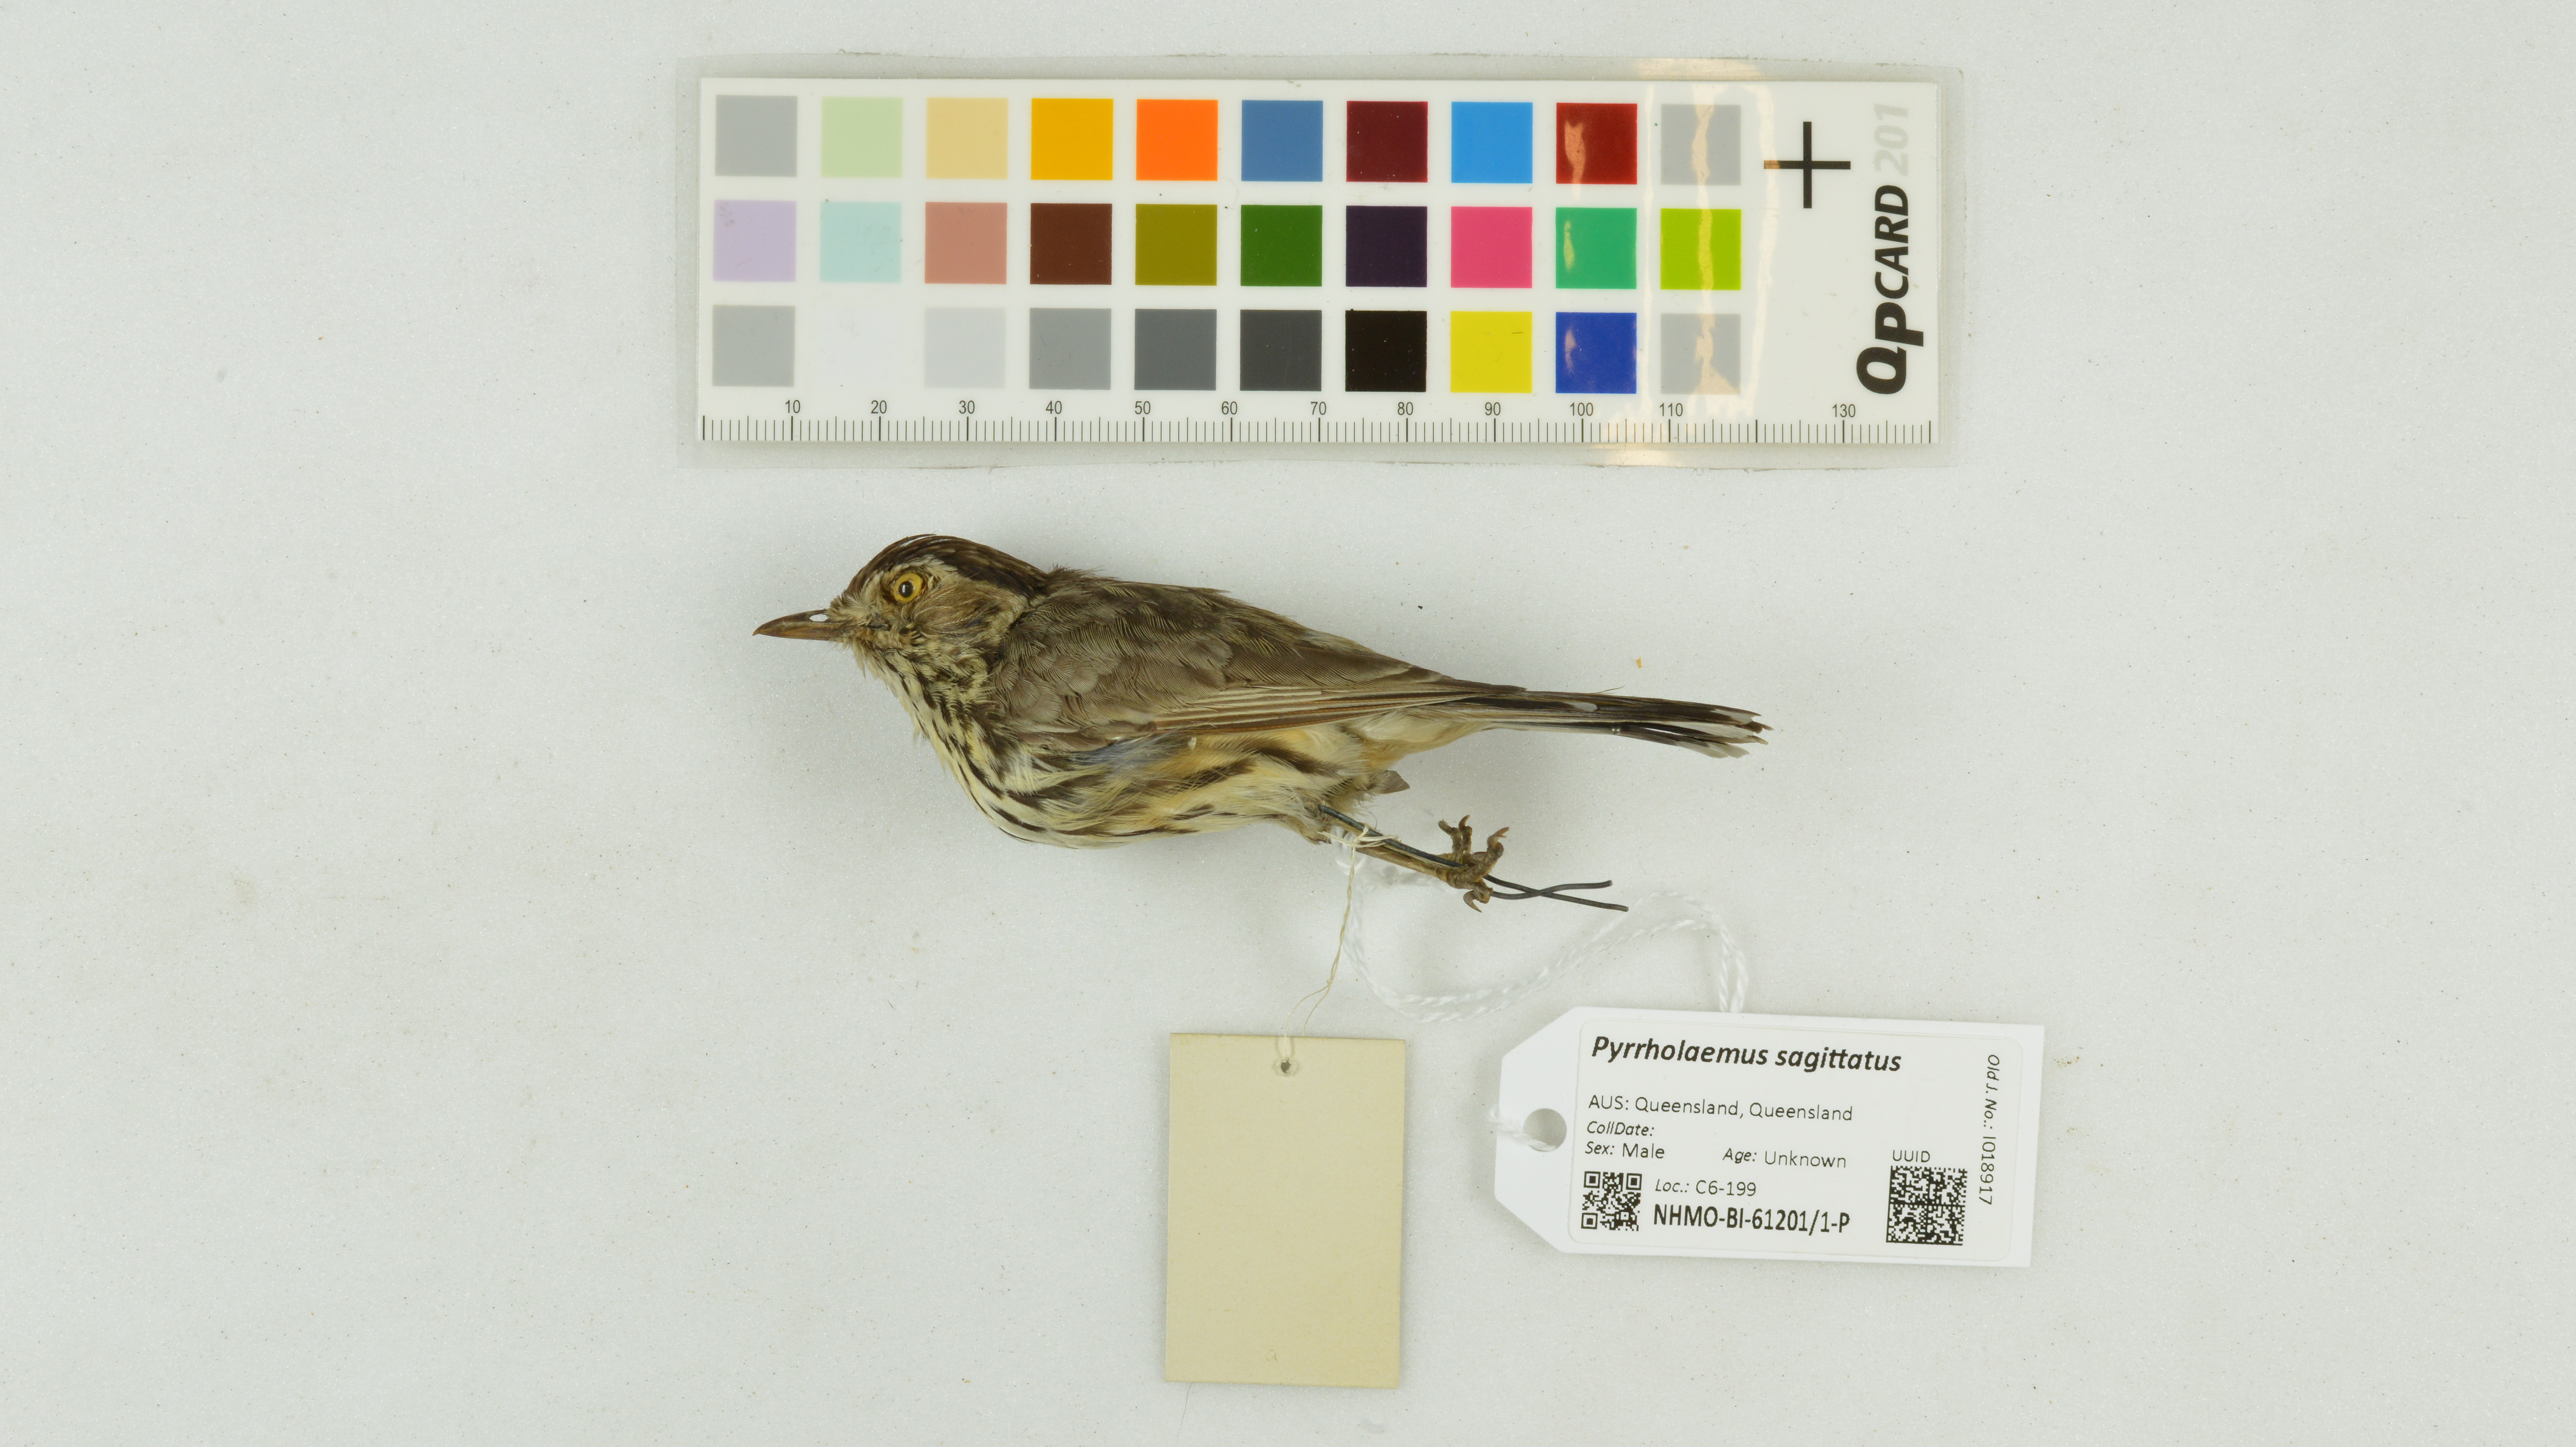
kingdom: Animalia
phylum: Chordata
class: Aves
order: Passeriformes
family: Acanthizidae
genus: Pyrrholaemus
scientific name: Pyrrholaemus sagittatus
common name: Speckled warbler
